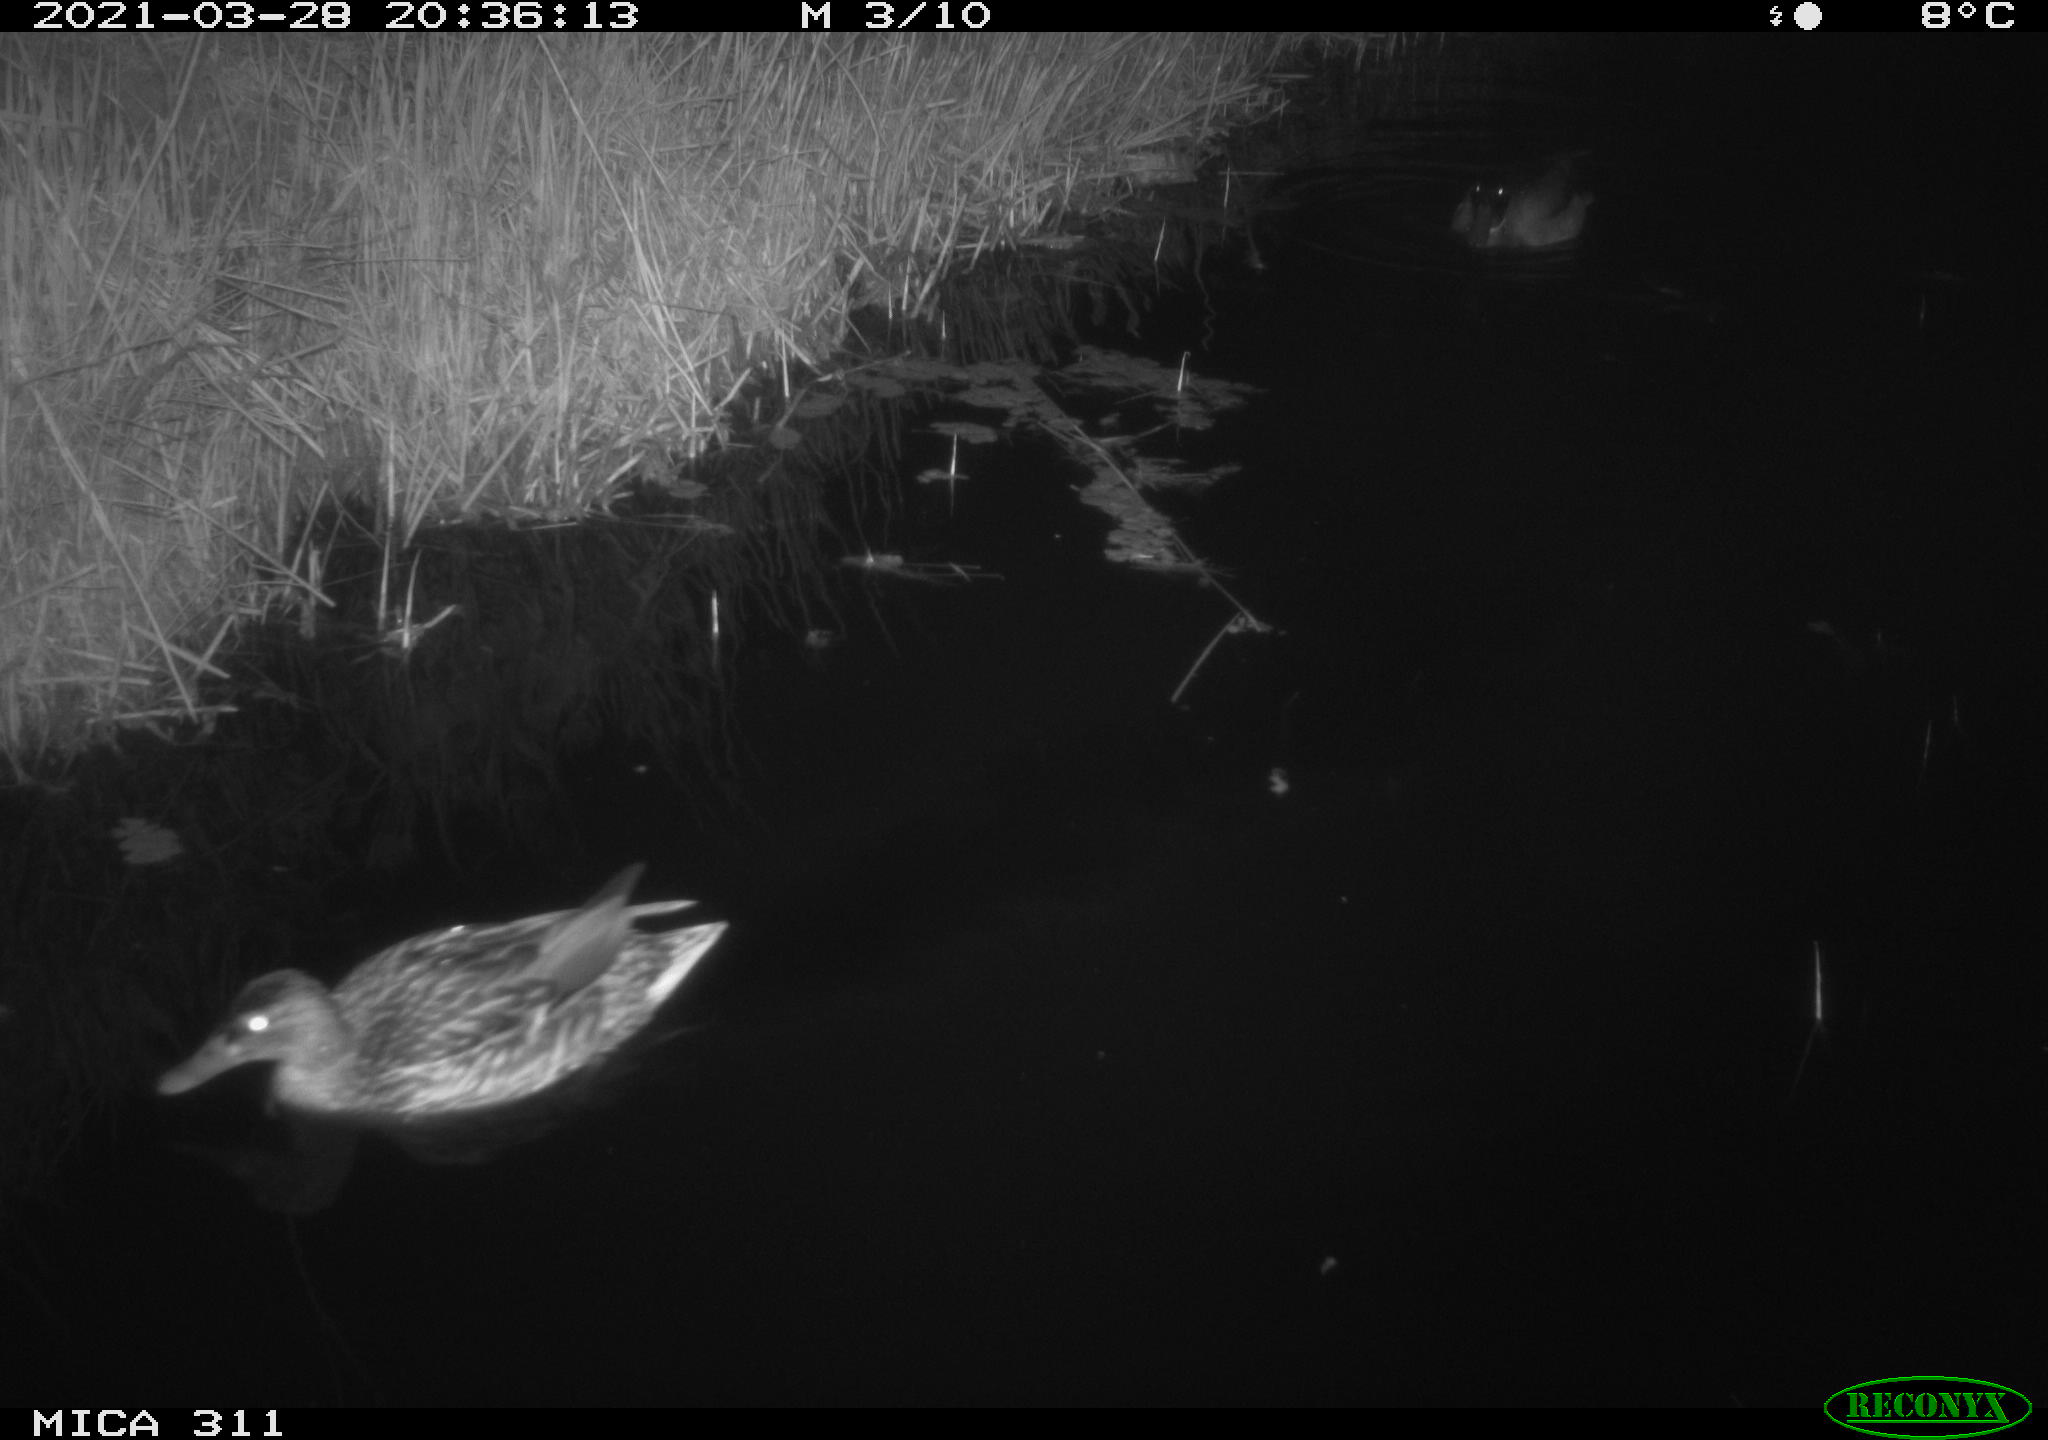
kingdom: Animalia
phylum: Chordata
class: Aves
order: Anseriformes
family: Anatidae
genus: Anas
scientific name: Anas platyrhynchos
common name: Mallard
